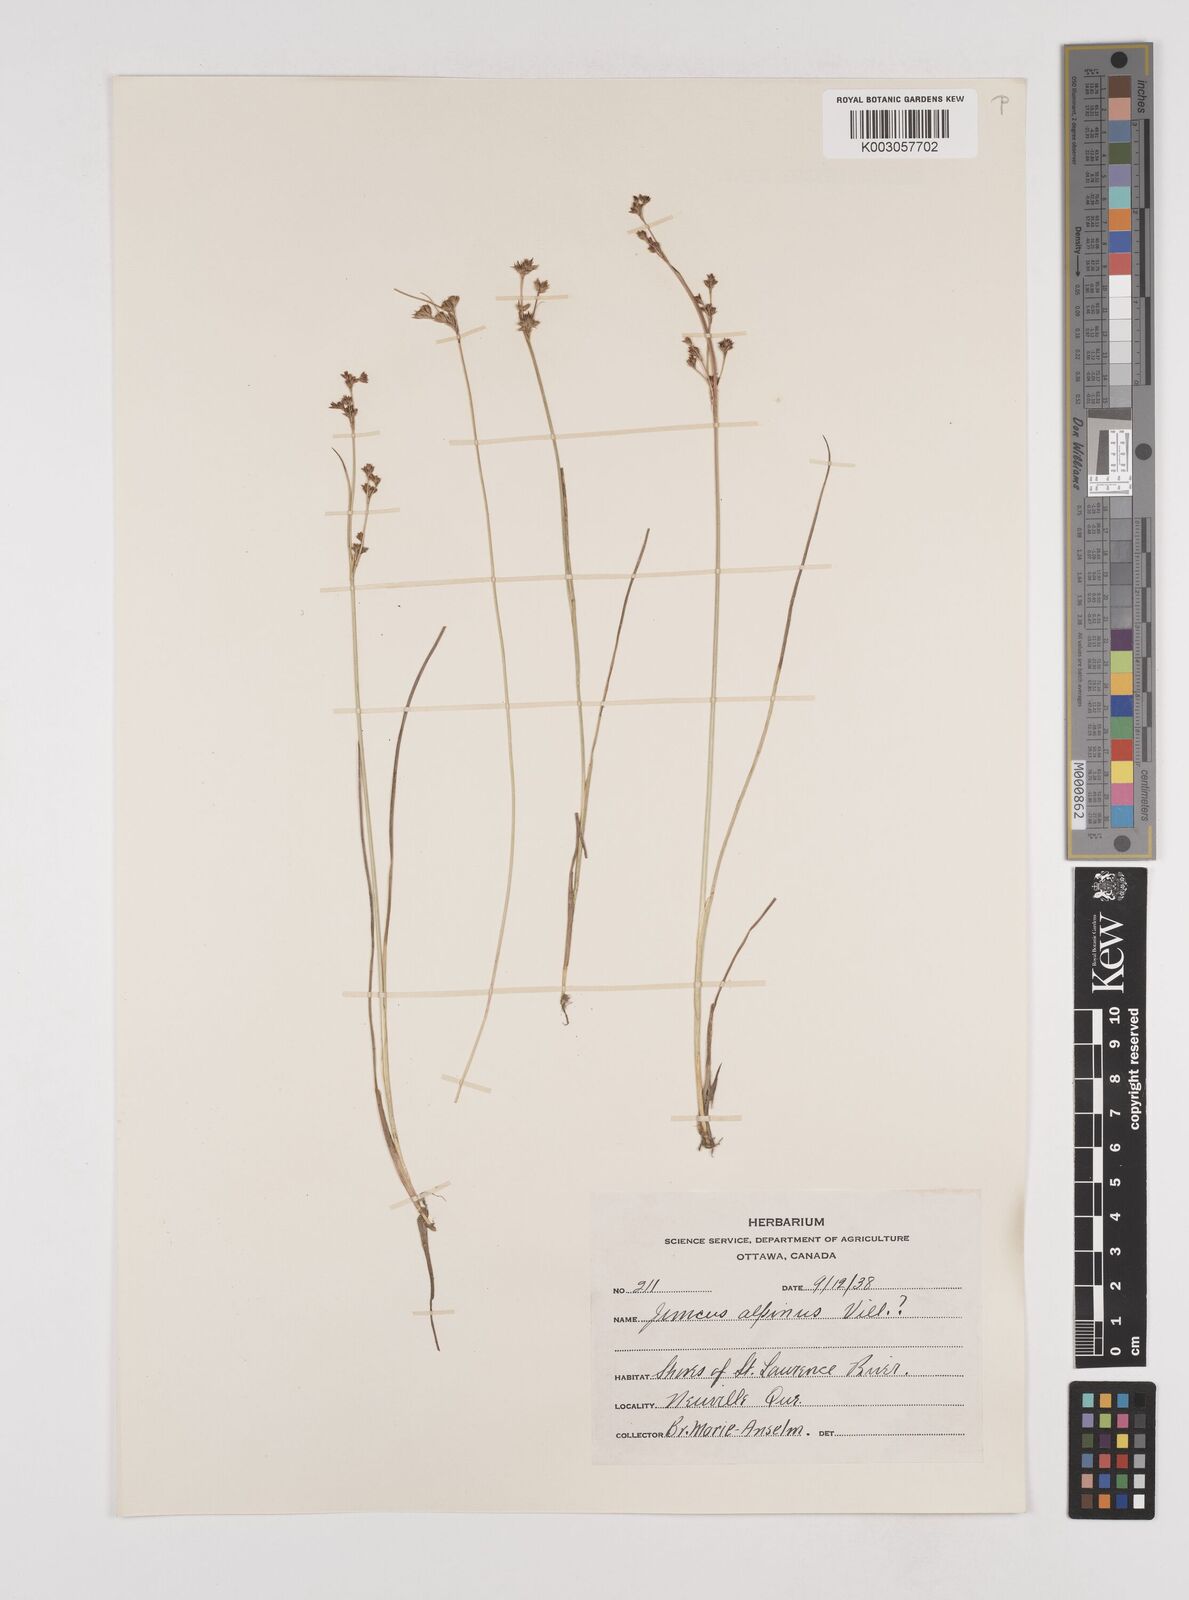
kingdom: Plantae
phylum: Tracheophyta
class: Liliopsida
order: Poales
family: Juncaceae
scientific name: Juncaceae
